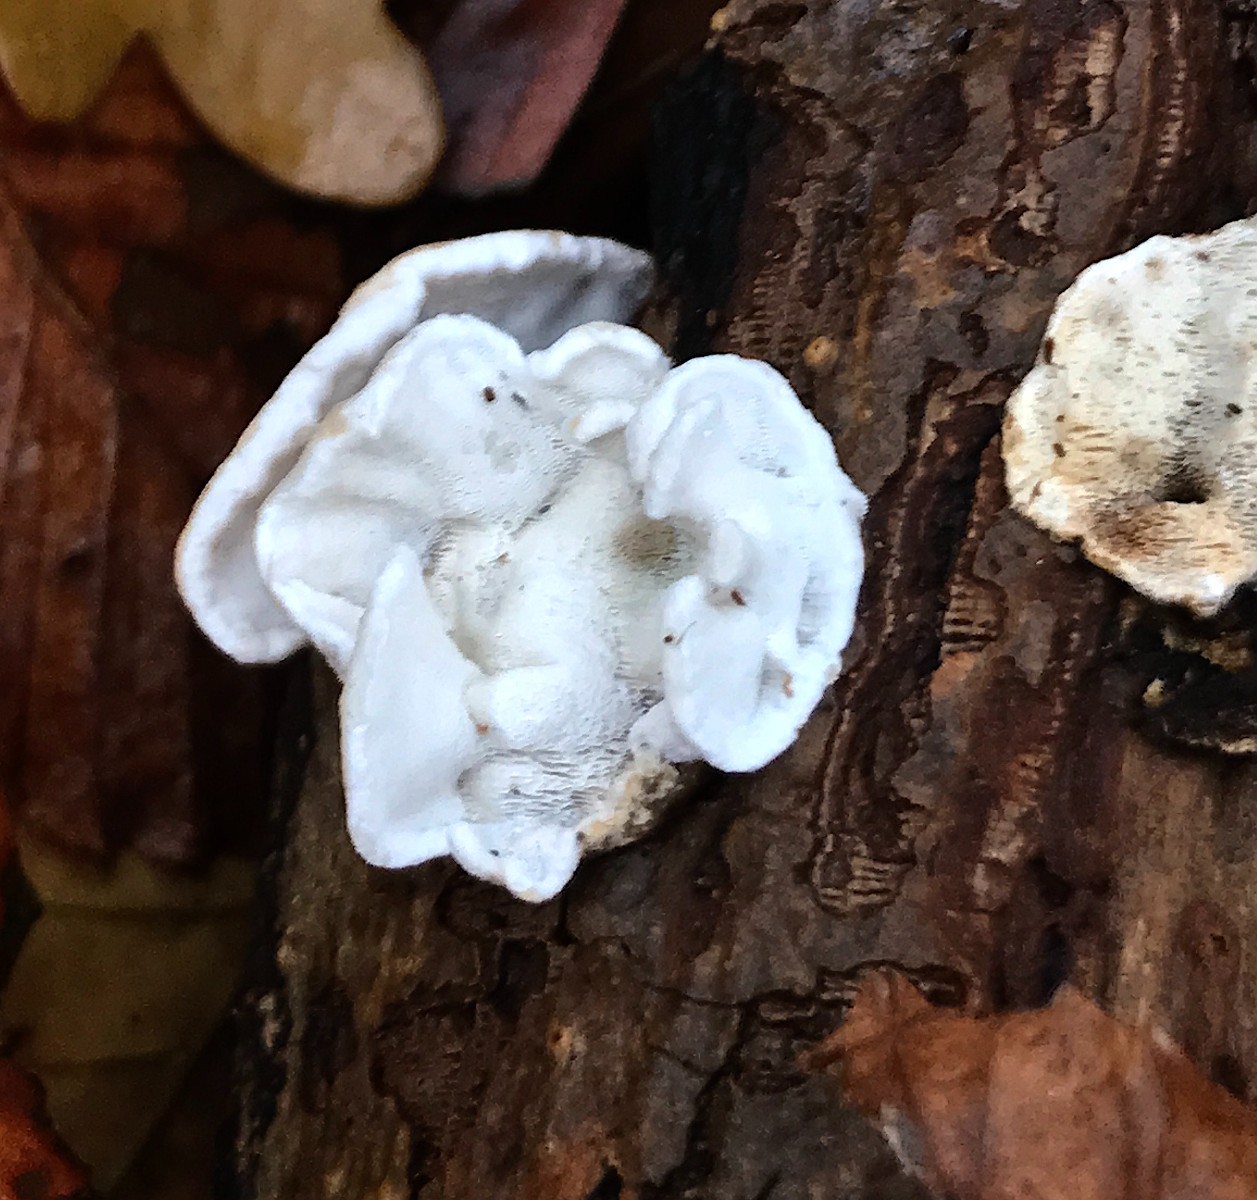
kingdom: Fungi
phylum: Basidiomycota
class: Agaricomycetes
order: Polyporales
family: Incrustoporiaceae
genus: Skeletocutis
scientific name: Skeletocutis nemoralis
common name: stor krystalporesvamp
